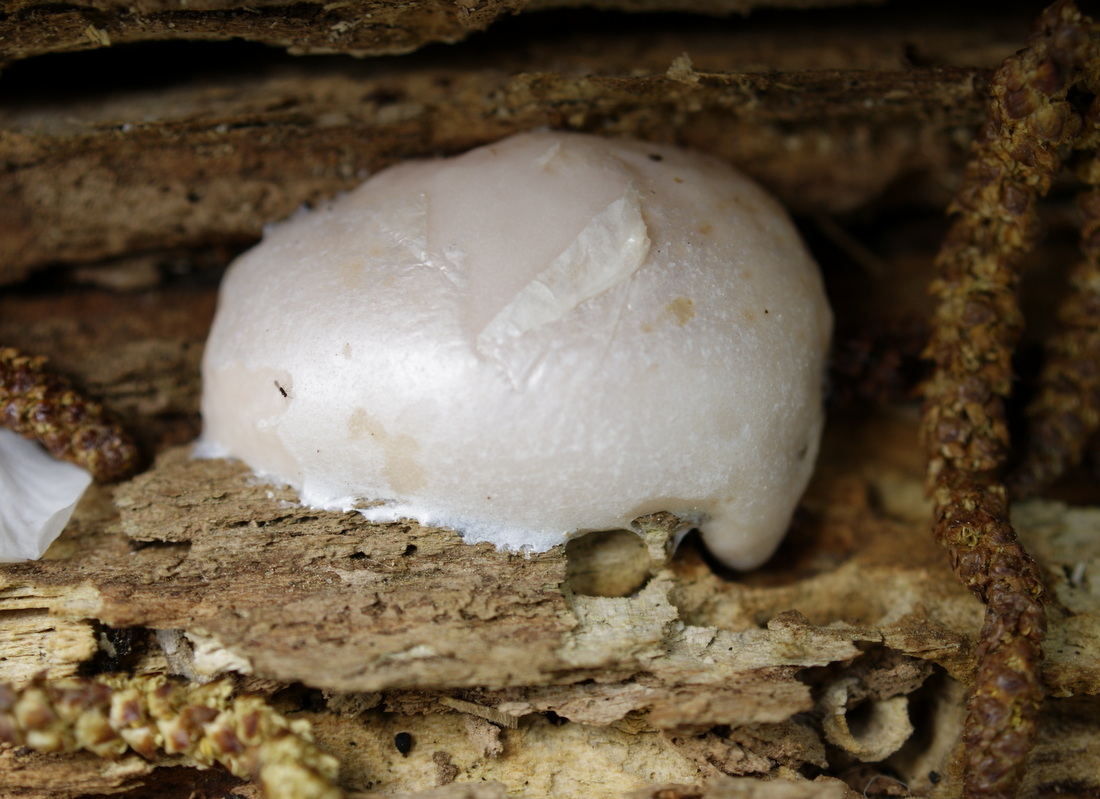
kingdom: Protozoa
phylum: Mycetozoa
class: Myxomycetes
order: Cribrariales
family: Tubiferaceae
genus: Reticularia
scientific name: Reticularia lycoperdon
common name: skinnende støvpude
